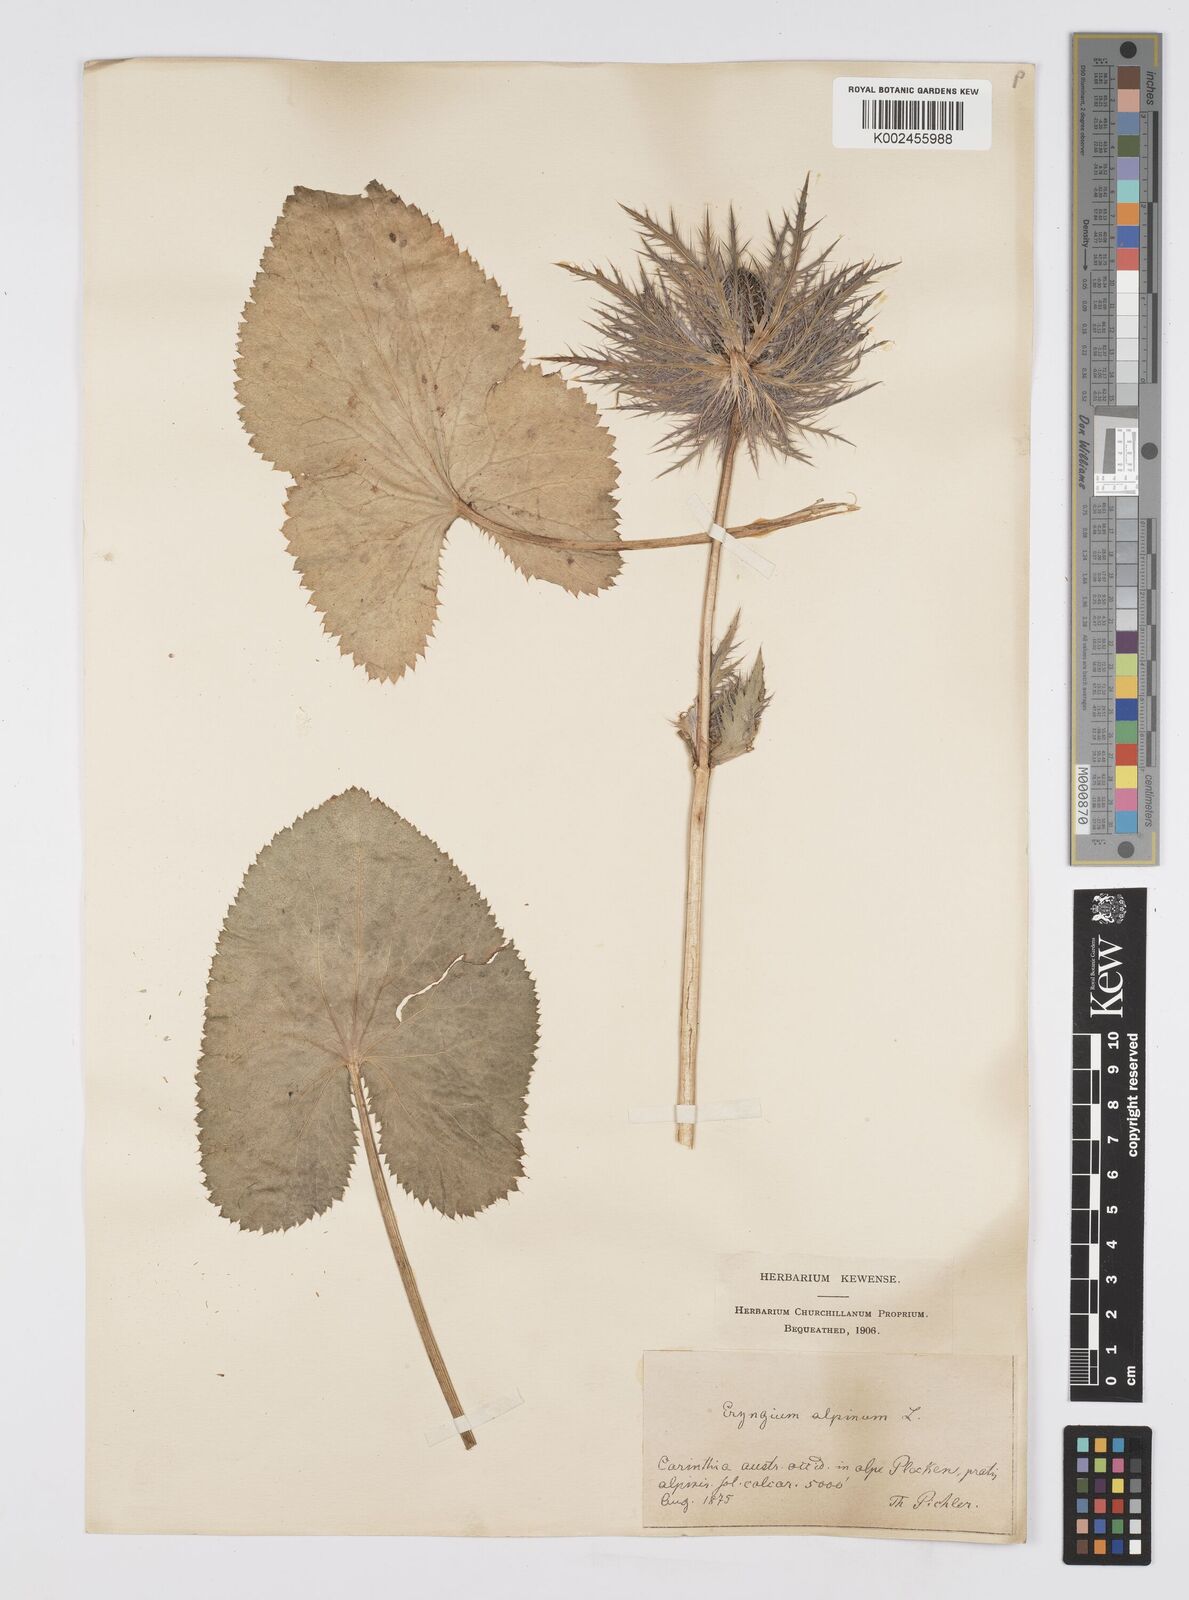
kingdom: Plantae
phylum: Tracheophyta
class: Magnoliopsida
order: Apiales
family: Apiaceae
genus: Eryngium
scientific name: Eryngium alpinum
